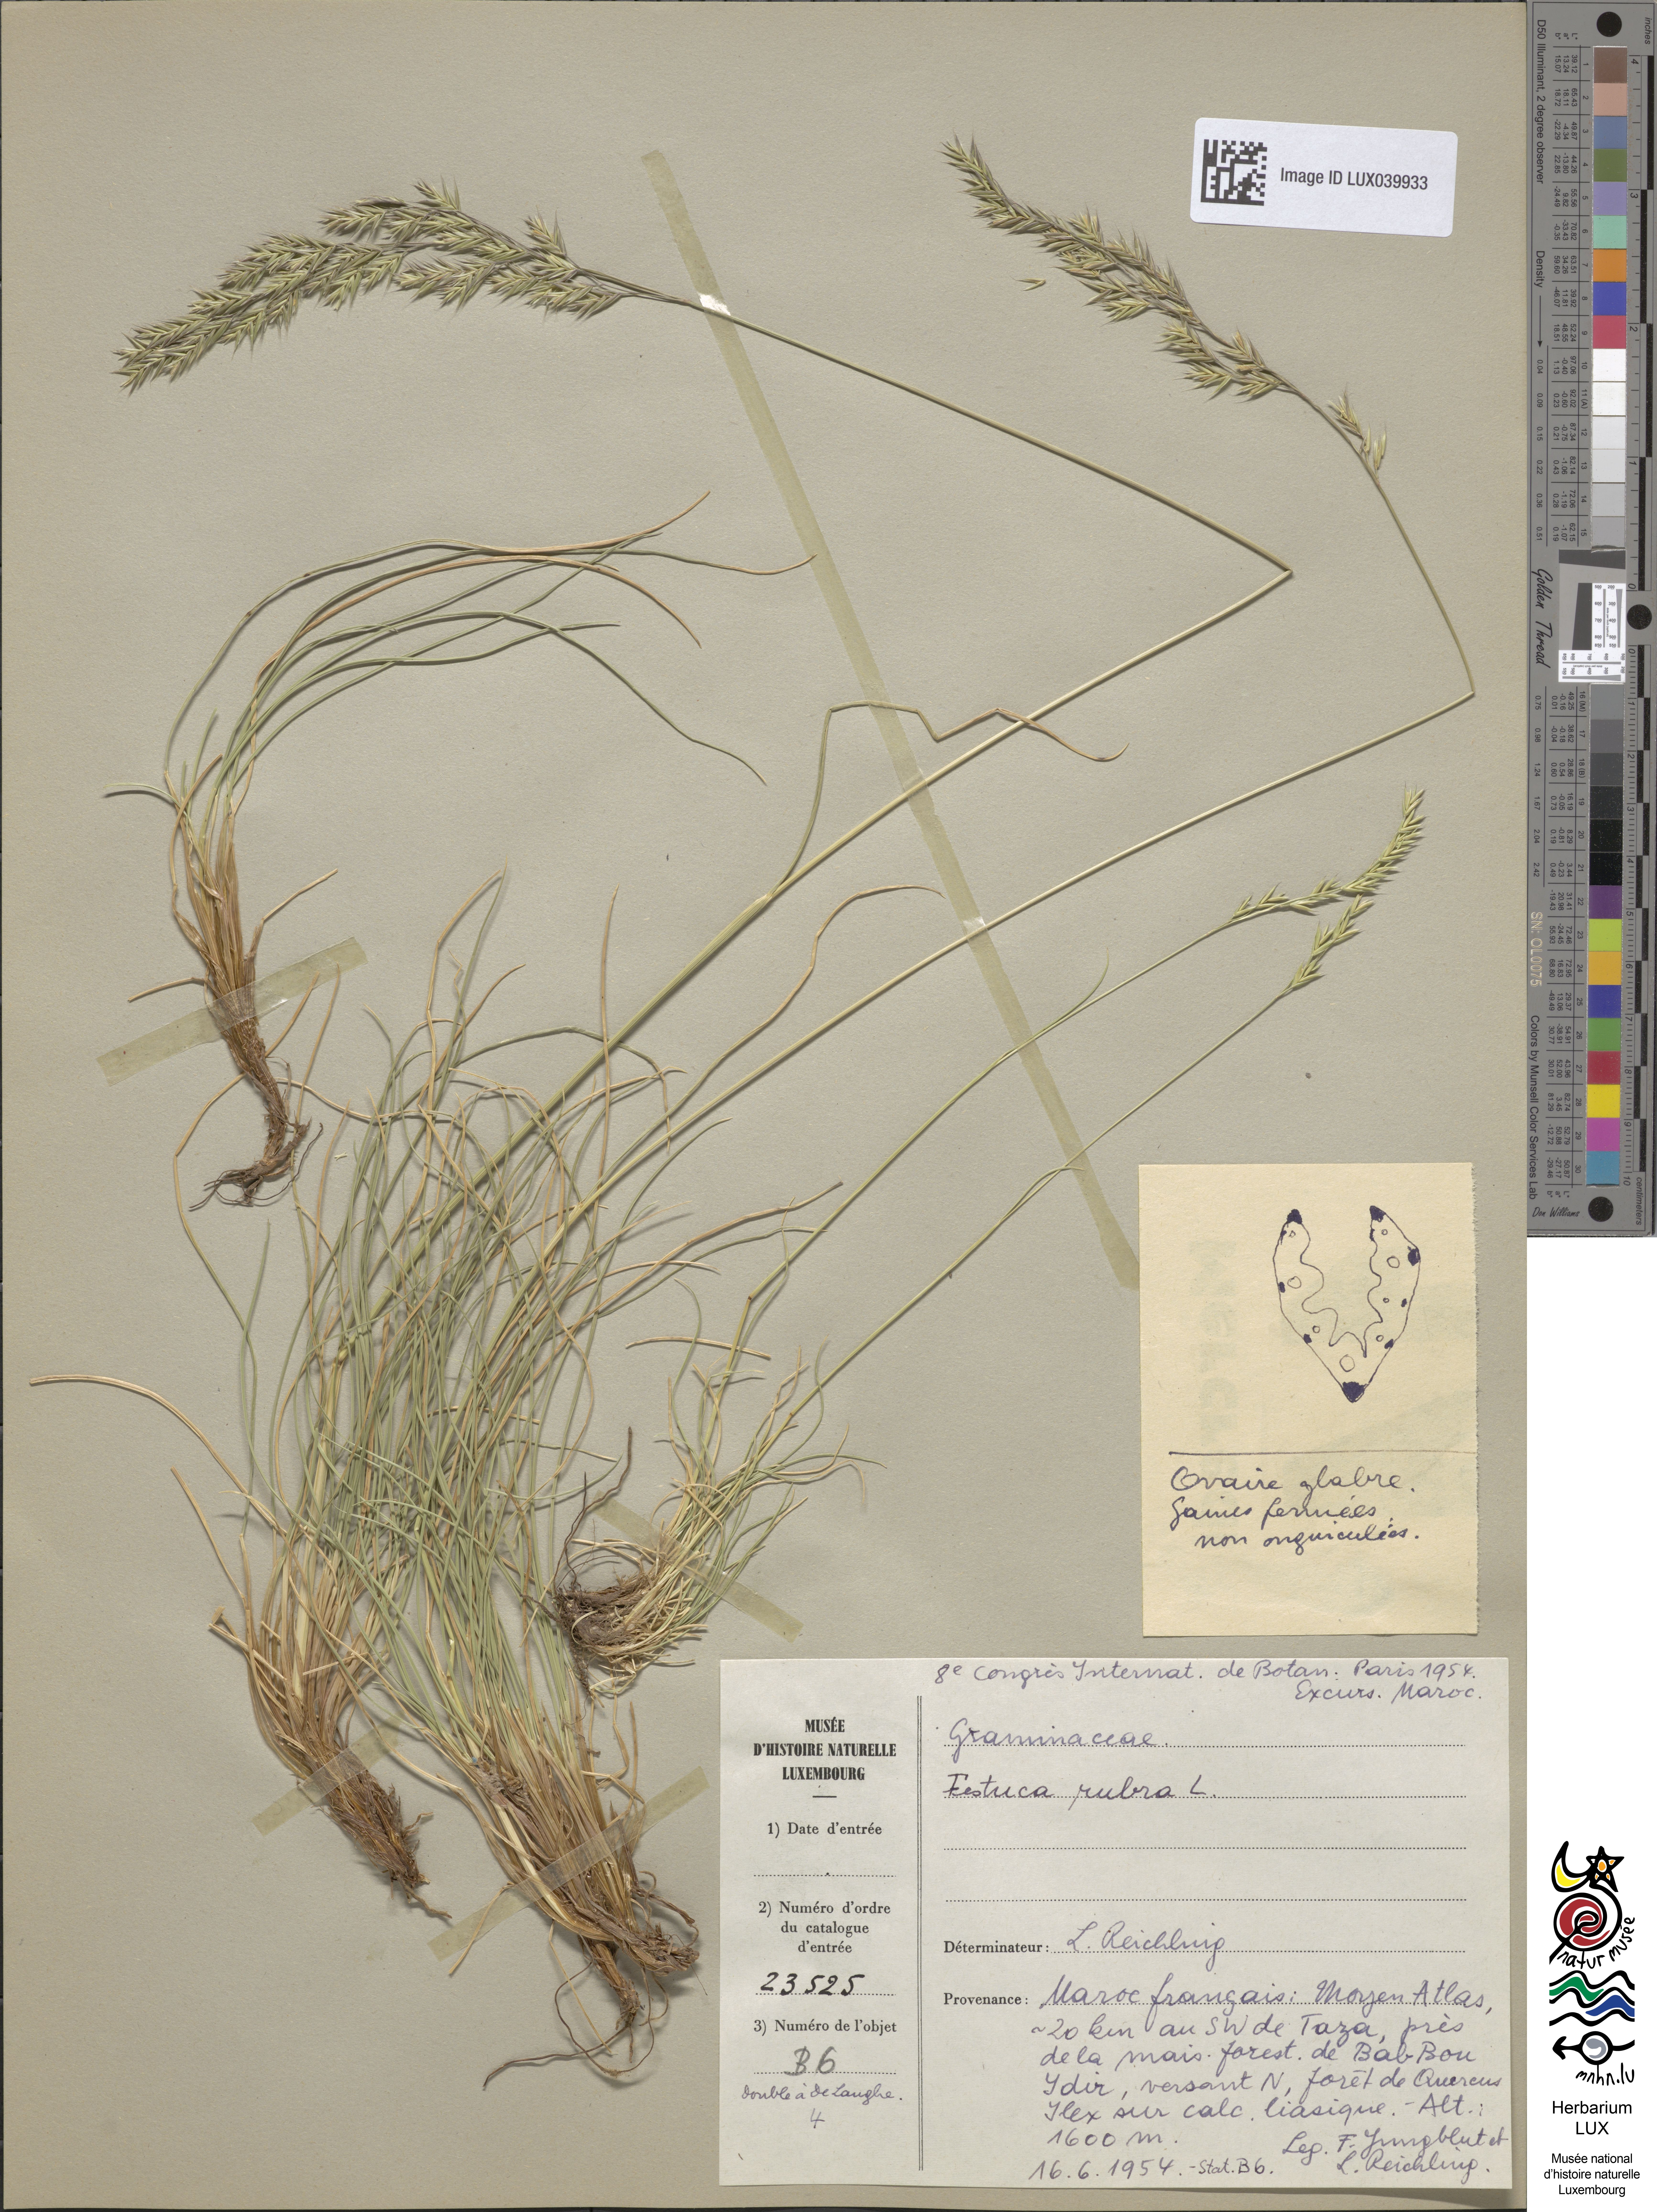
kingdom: Plantae
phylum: Tracheophyta
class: Liliopsida
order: Poales
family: Poaceae
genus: Festuca
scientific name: Festuca rubra
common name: Red fescue
